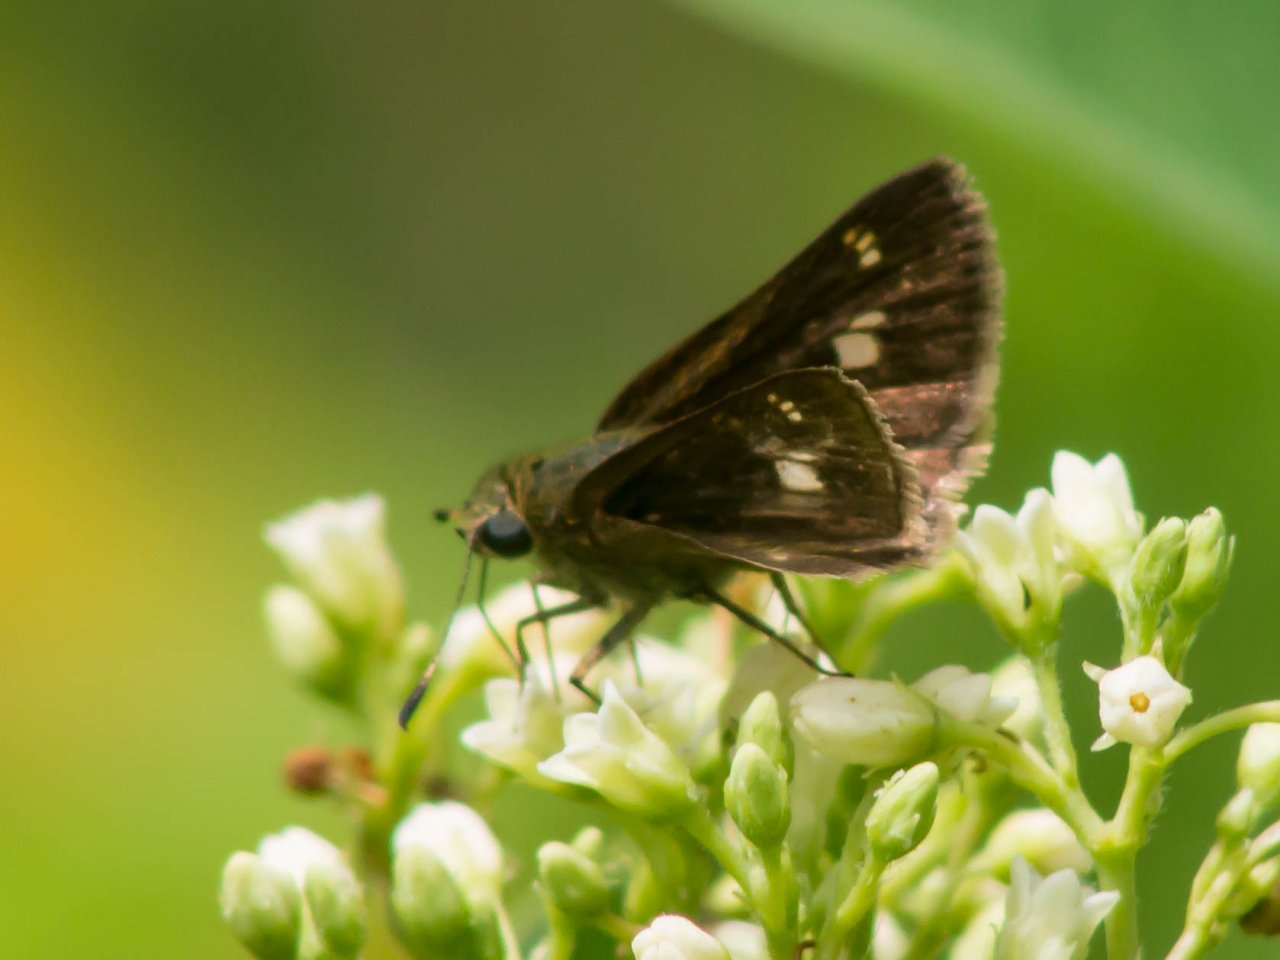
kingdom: Animalia
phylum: Arthropoda
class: Insecta
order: Lepidoptera
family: Hesperiidae
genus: Vernia
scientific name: Vernia verna
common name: Little Glassywing
